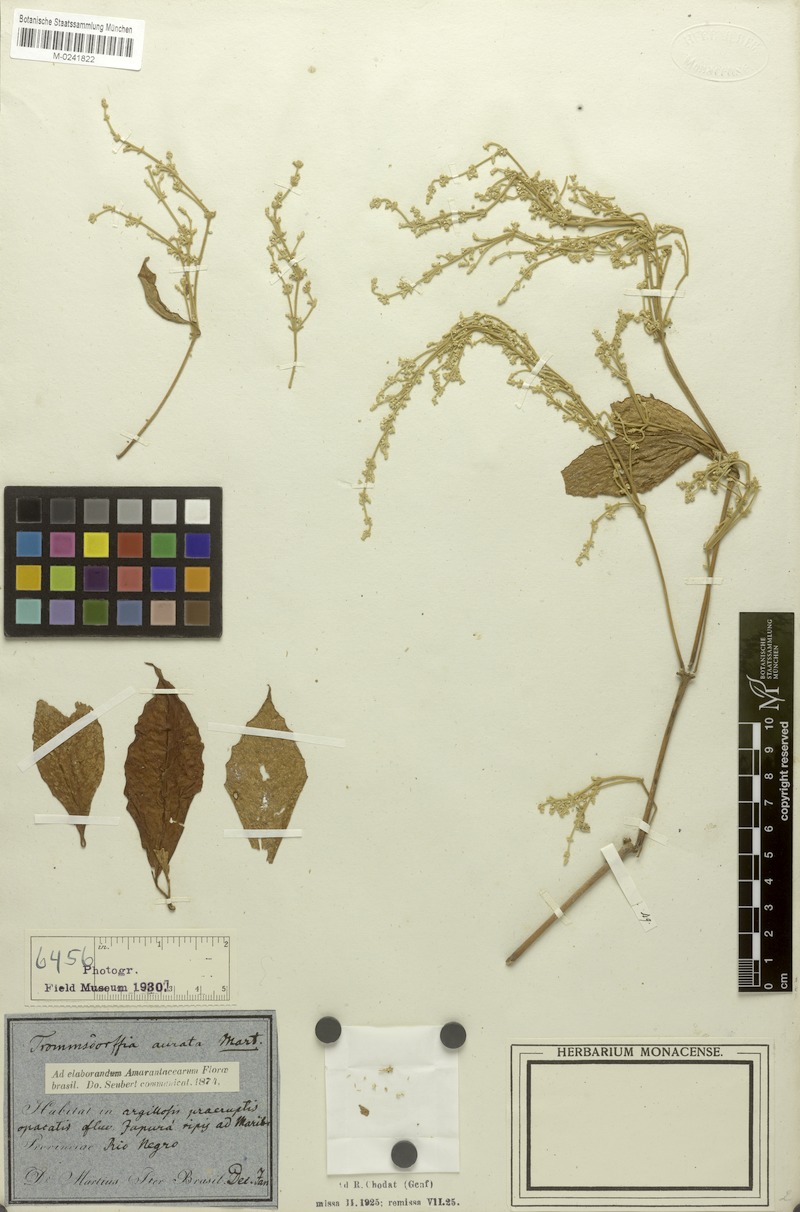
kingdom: Plantae
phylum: Tracheophyta
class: Magnoliopsida
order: Caryophyllales
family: Amaranthaceae
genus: Pedersenia
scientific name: Pedersenia argentata
